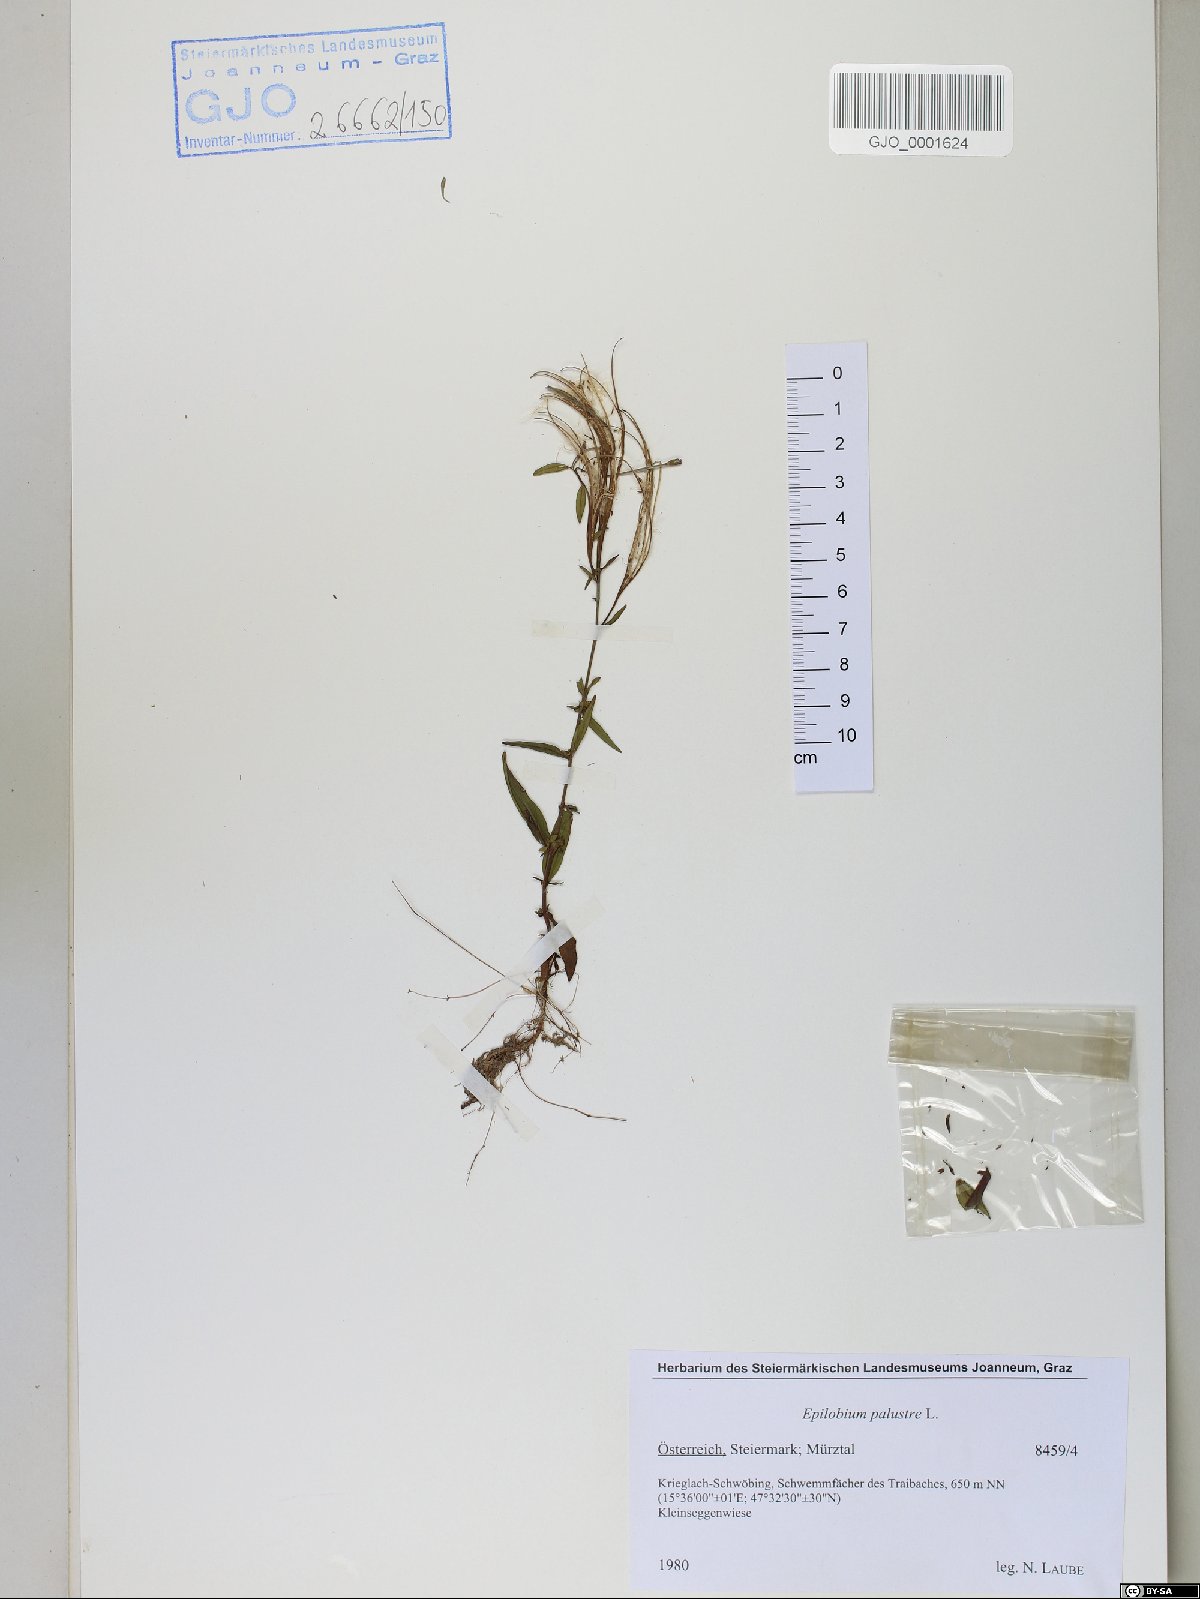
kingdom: Plantae
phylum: Tracheophyta
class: Magnoliopsida
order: Myrtales
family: Onagraceae
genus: Epilobium
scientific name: Epilobium palustre
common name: Marsh willowherb
